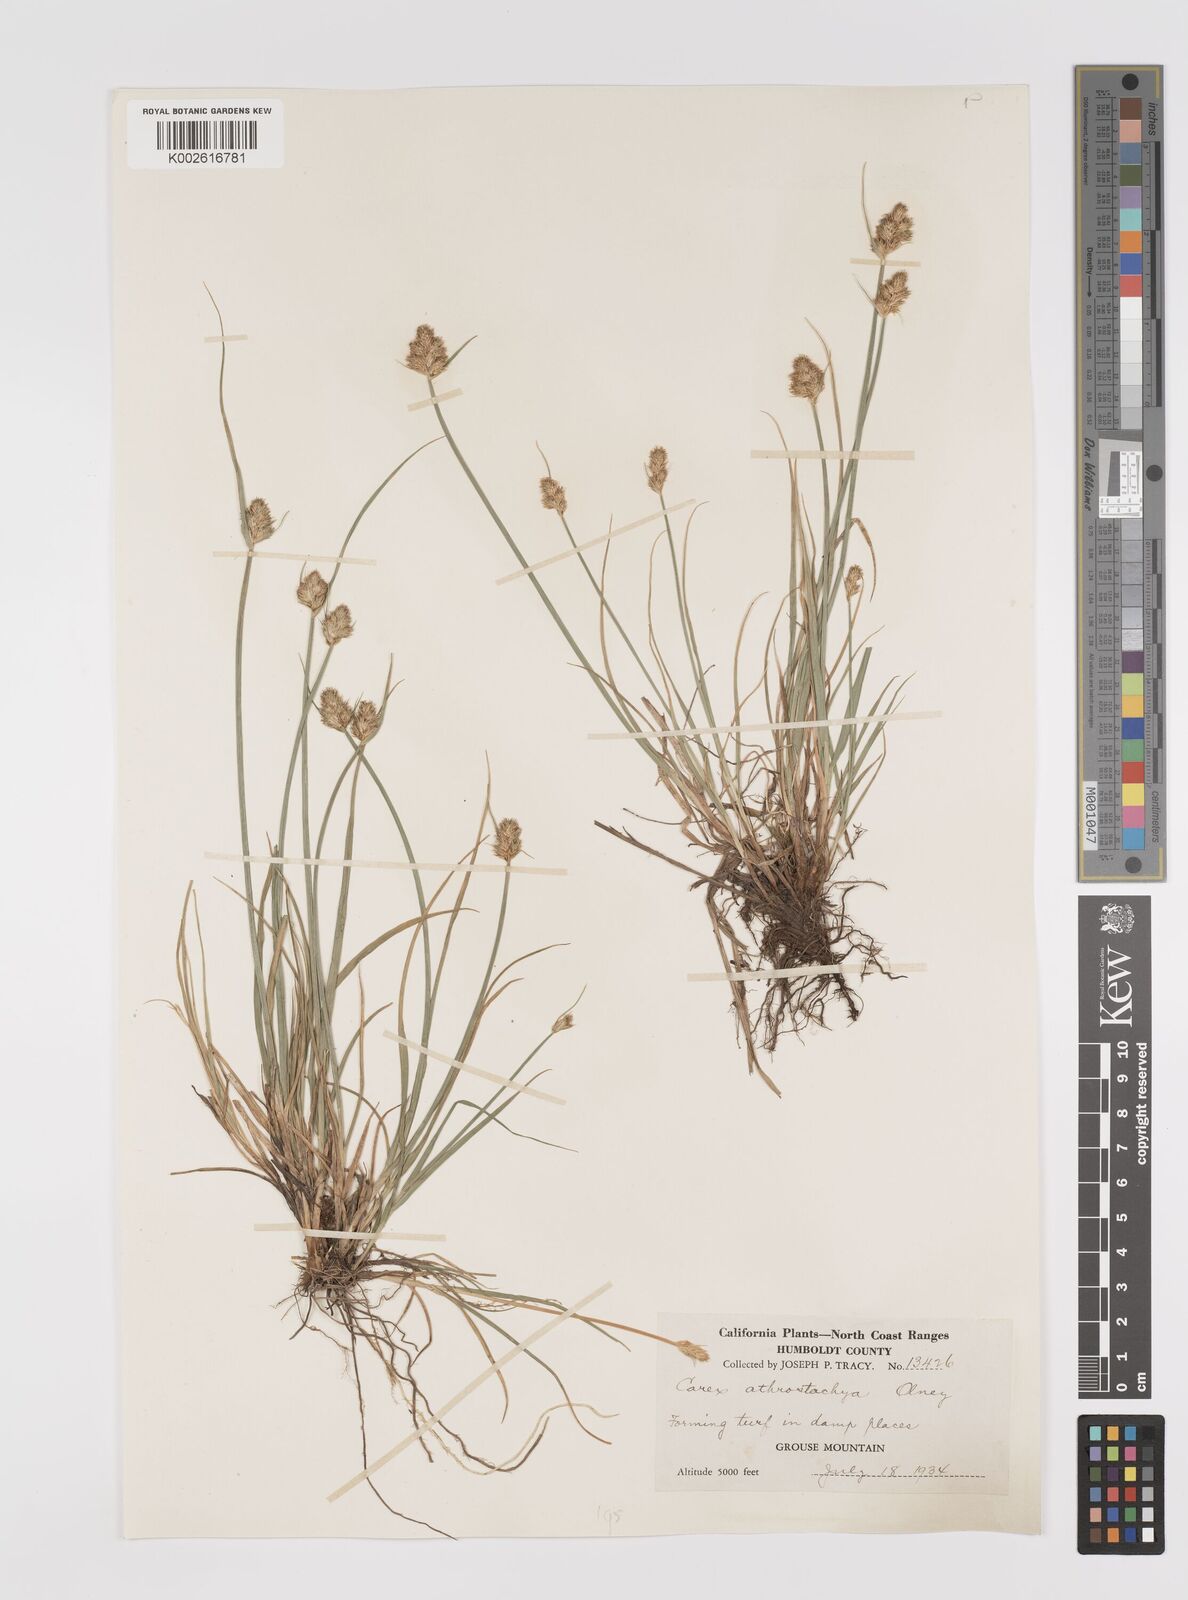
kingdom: Plantae
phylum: Tracheophyta
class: Liliopsida
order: Poales
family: Cyperaceae
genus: Carex
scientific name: Carex athrostachya
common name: Slenderbeak sedge
